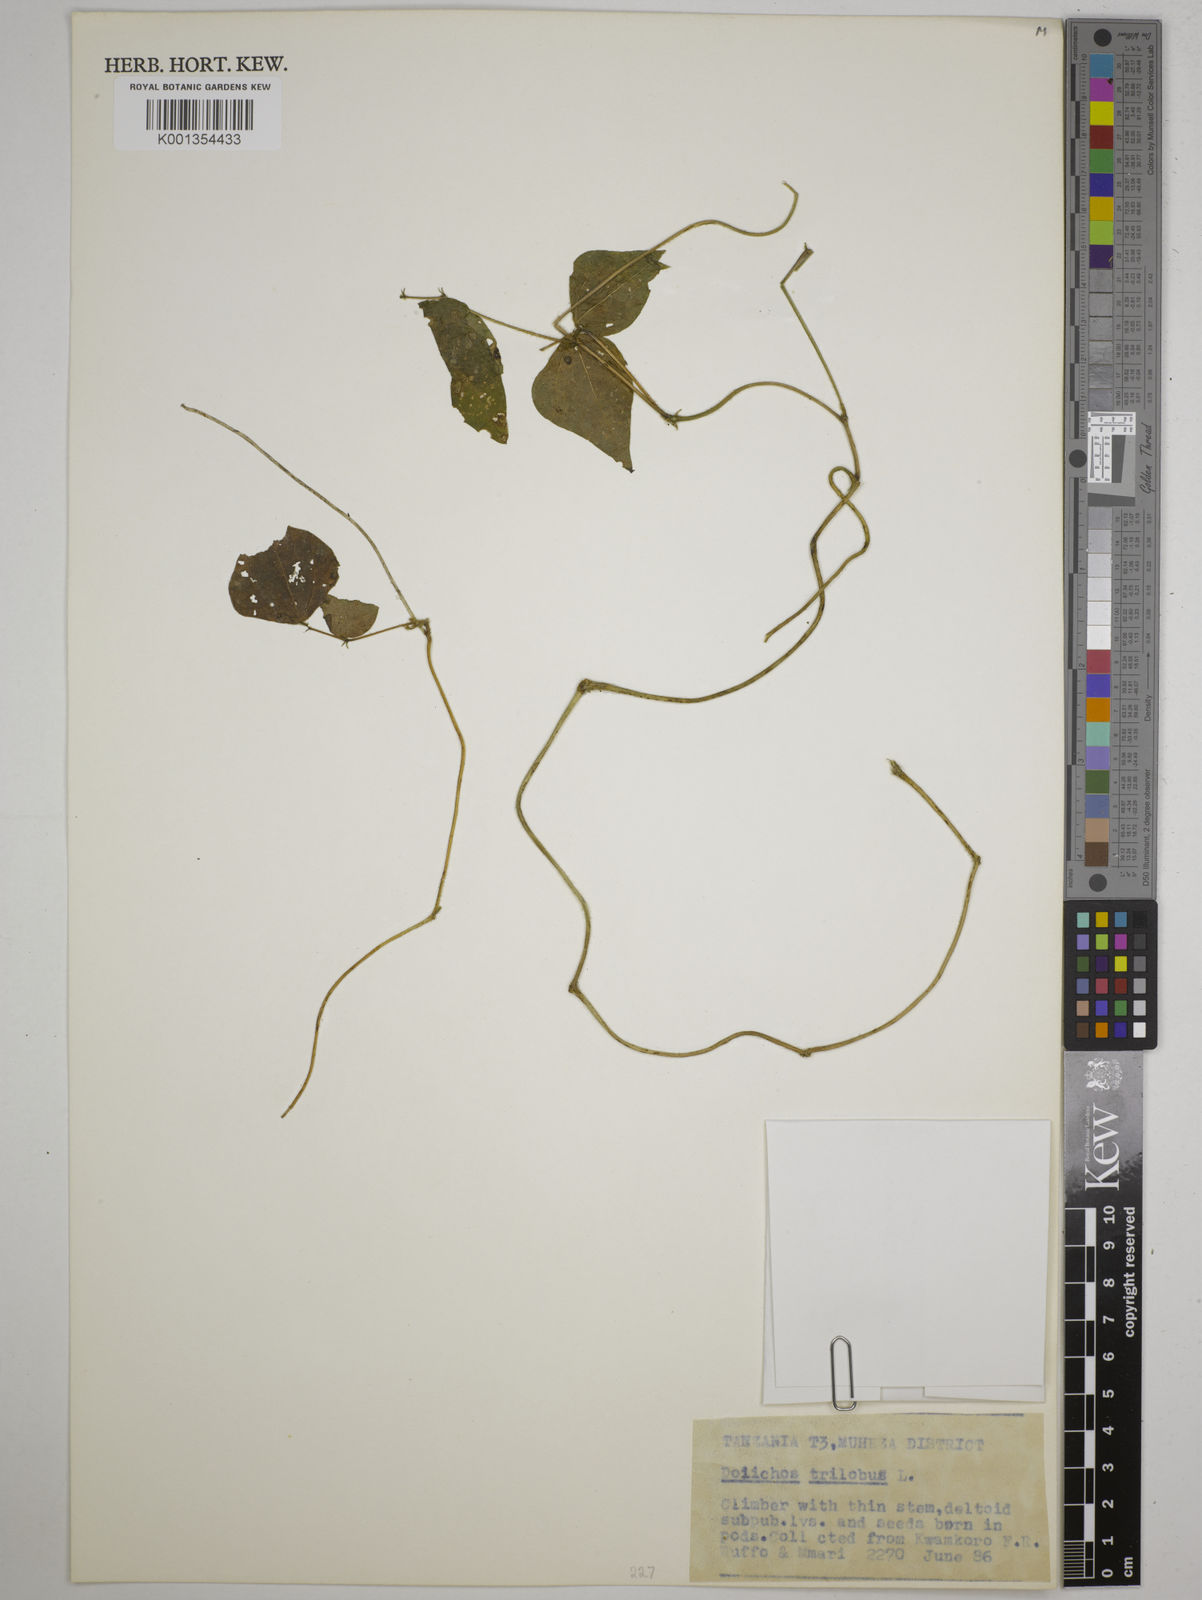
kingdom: Plantae
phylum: Tracheophyta
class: Magnoliopsida
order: Fabales
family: Fabaceae
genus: Dolichos
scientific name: Dolichos
